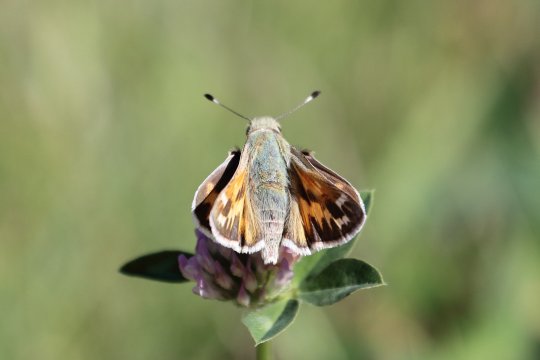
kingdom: Animalia
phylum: Arthropoda
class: Insecta
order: Lepidoptera
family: Hesperiidae
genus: Hesperia
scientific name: Hesperia juba
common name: Juba Skipper
